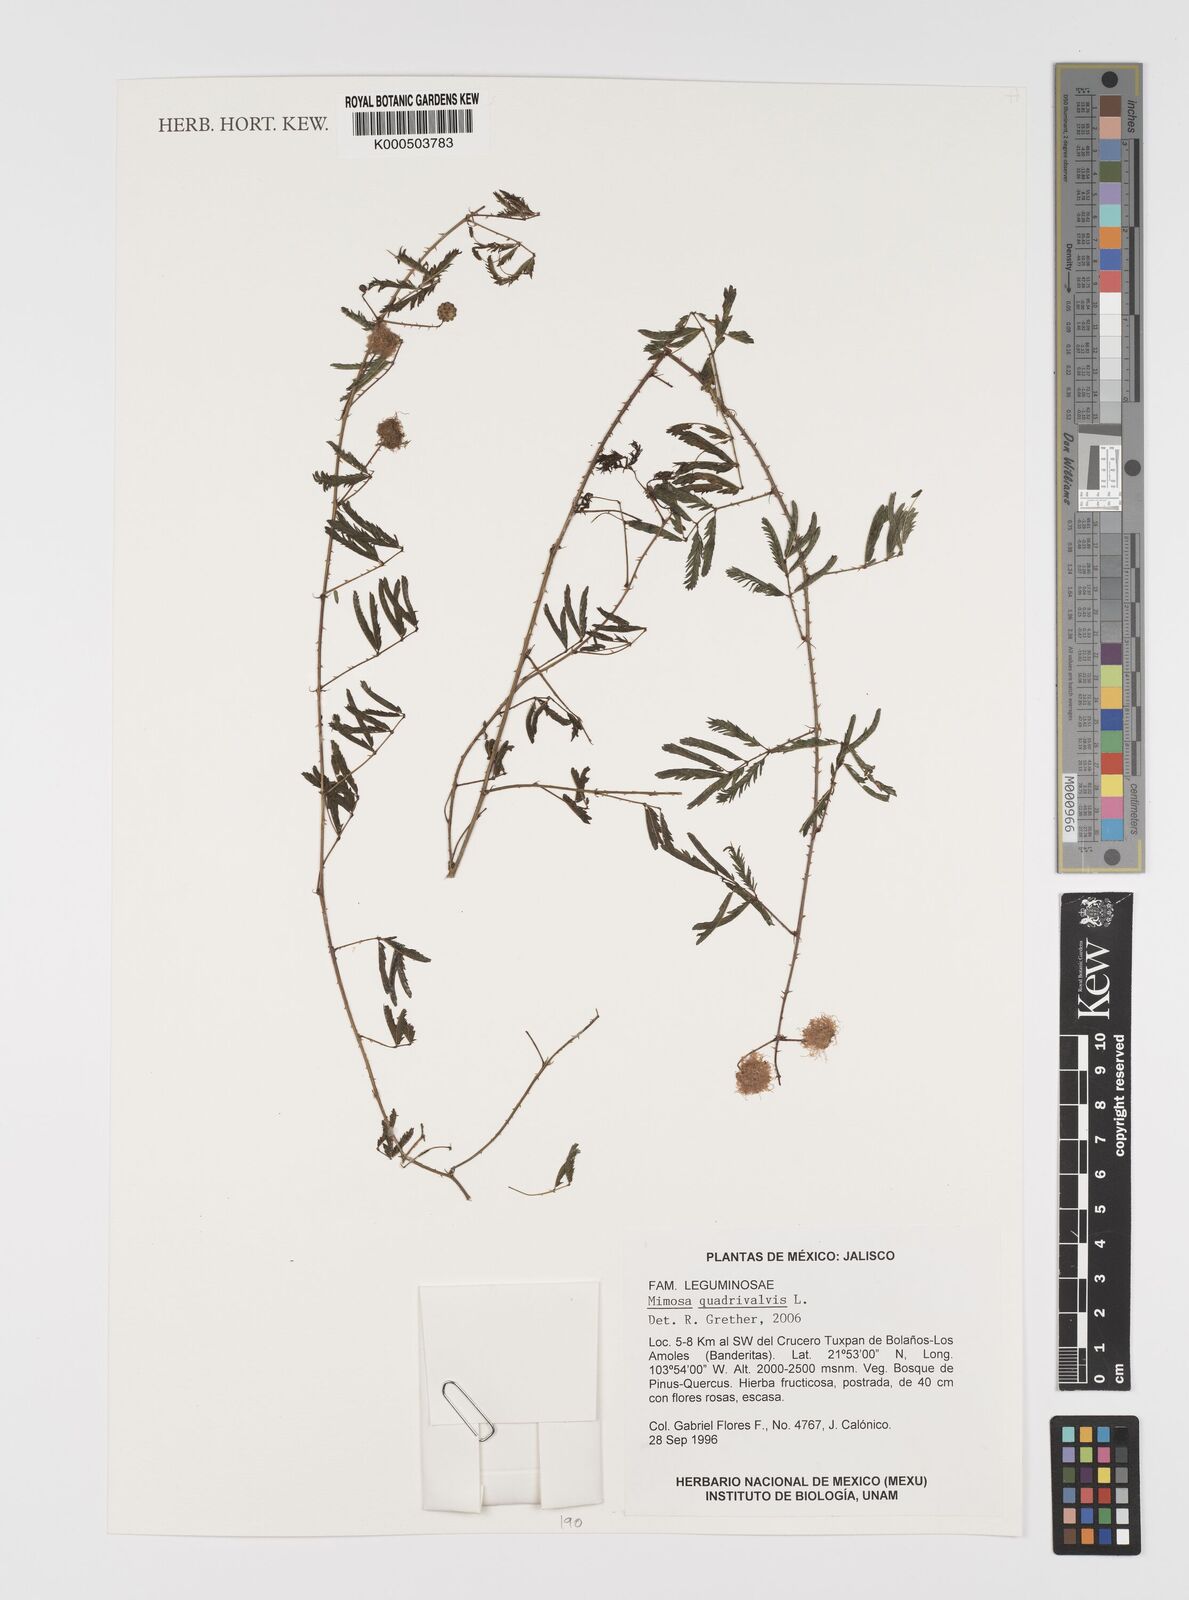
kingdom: Plantae
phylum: Tracheophyta
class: Magnoliopsida
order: Fabales
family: Fabaceae
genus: Mimosa
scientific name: Mimosa quadrivalvis
